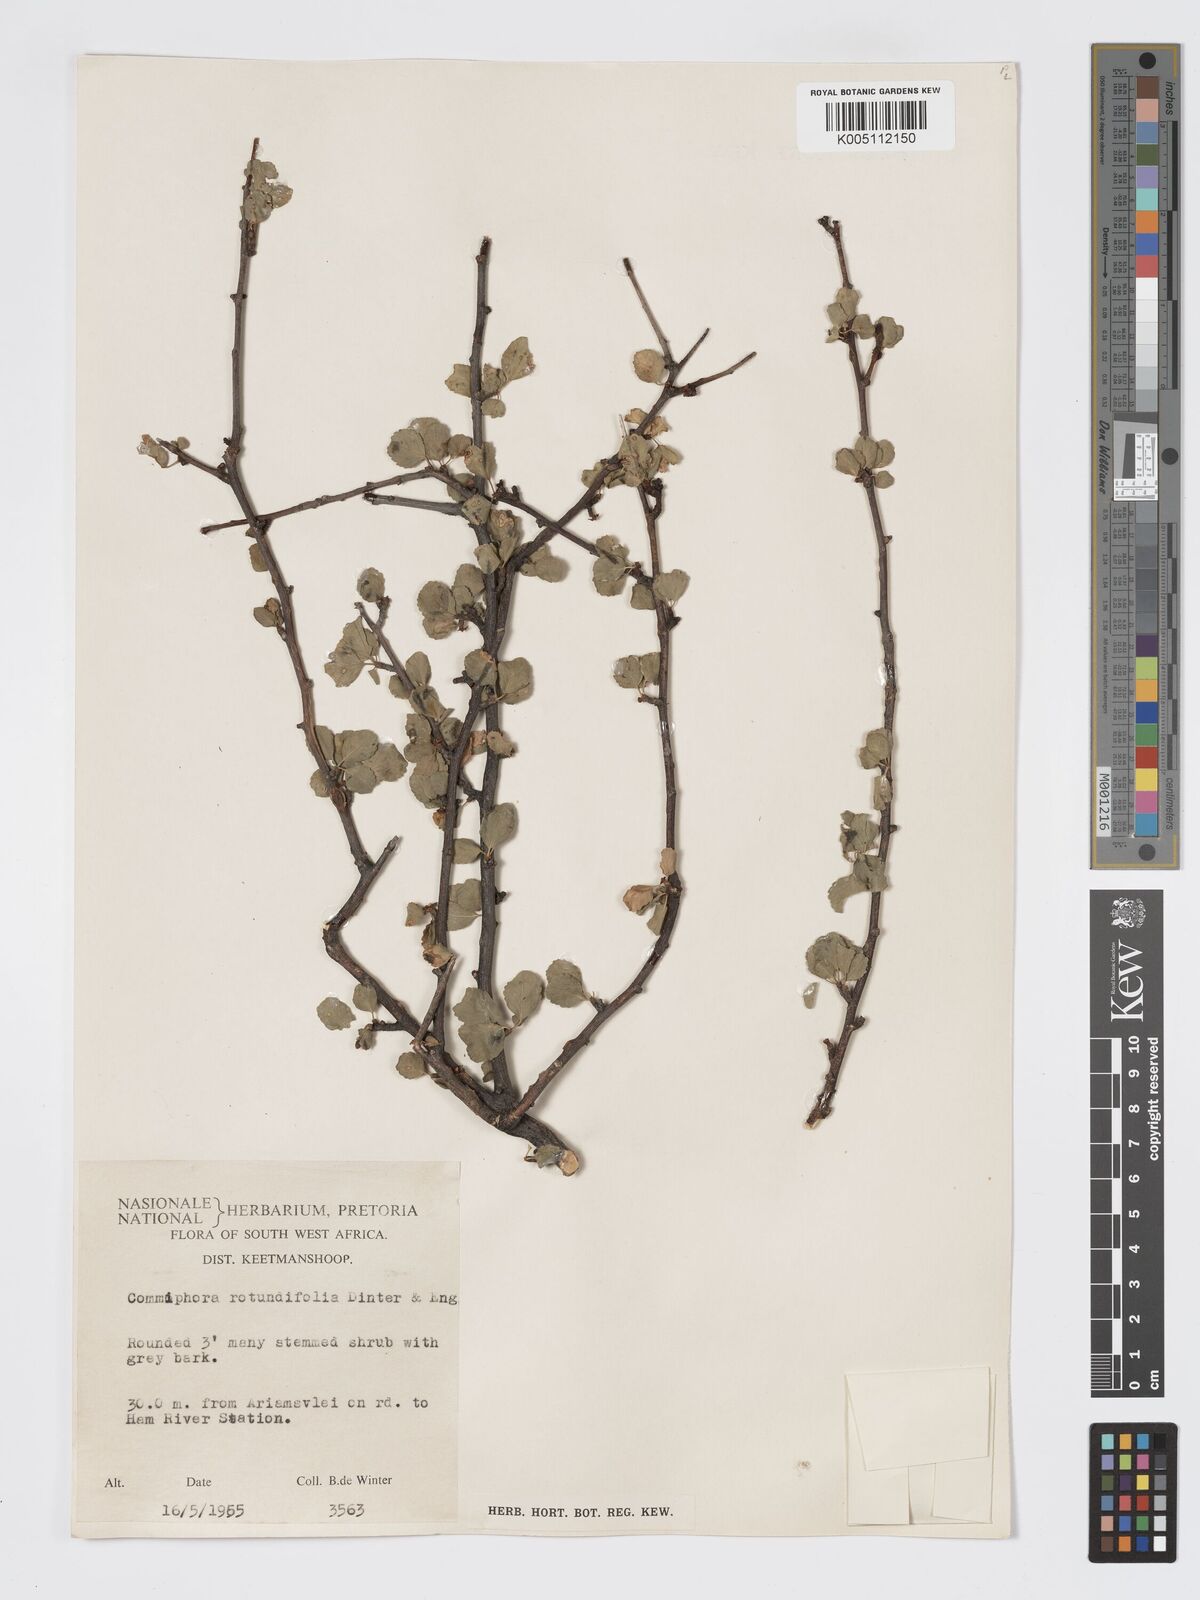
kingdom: Plantae
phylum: Tracheophyta
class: Magnoliopsida
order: Sapindales
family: Burseraceae
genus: Commiphora
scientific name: Commiphora namaensis
